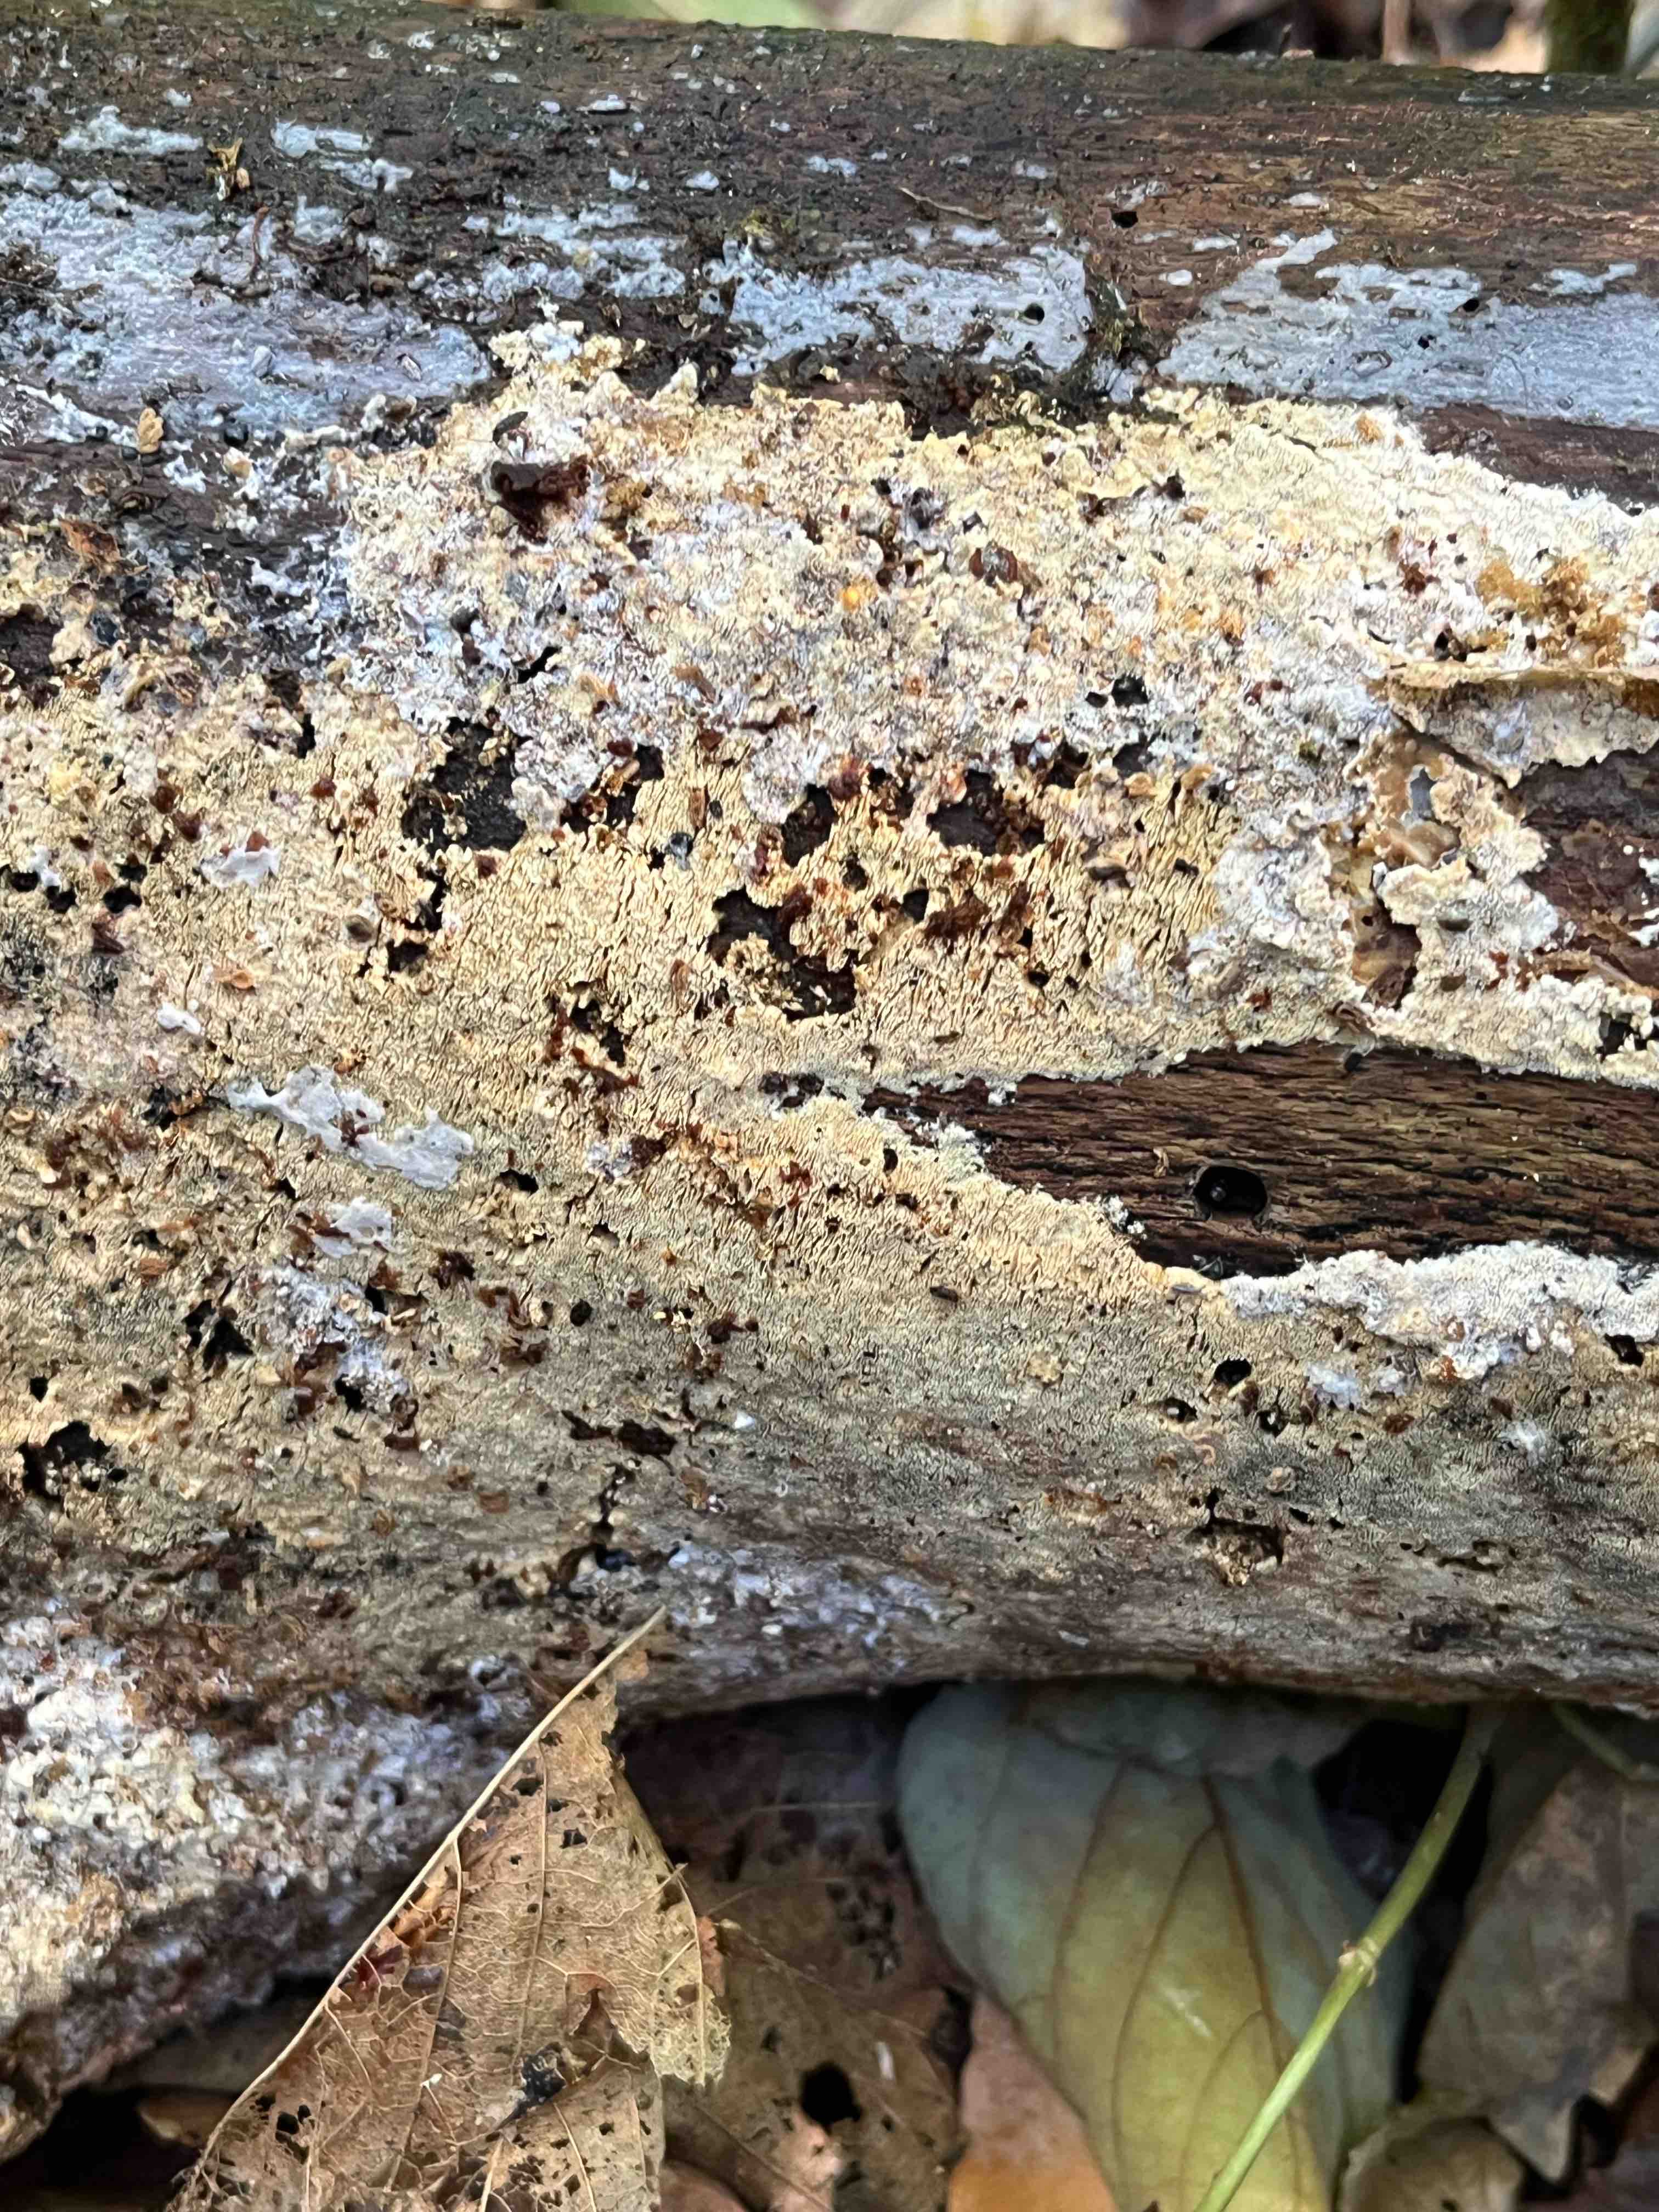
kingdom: Fungi
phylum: Basidiomycota
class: Agaricomycetes
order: Hymenochaetales
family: Schizoporaceae
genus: Xylodon
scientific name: Xylodon subtropicus
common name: labyrint-tandsvamp
